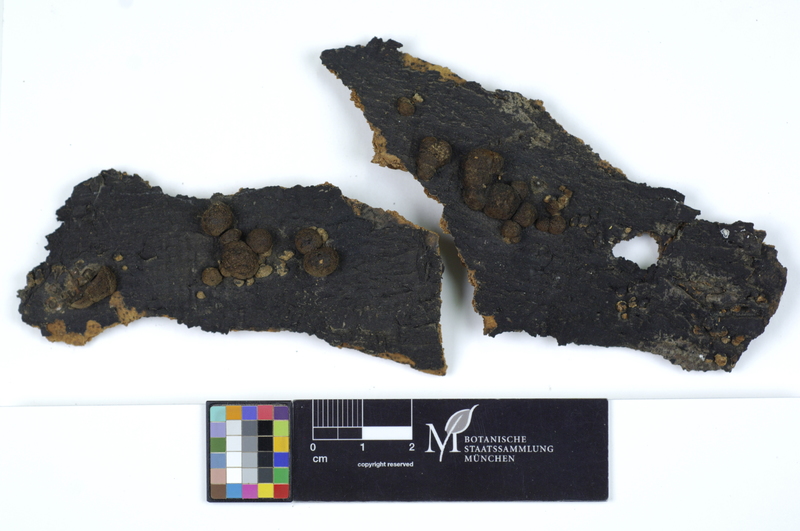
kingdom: Plantae
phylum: Tracheophyta
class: Magnoliopsida
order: Fagales
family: Fagaceae
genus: Fagus
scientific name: Fagus sylvatica
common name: Beech
